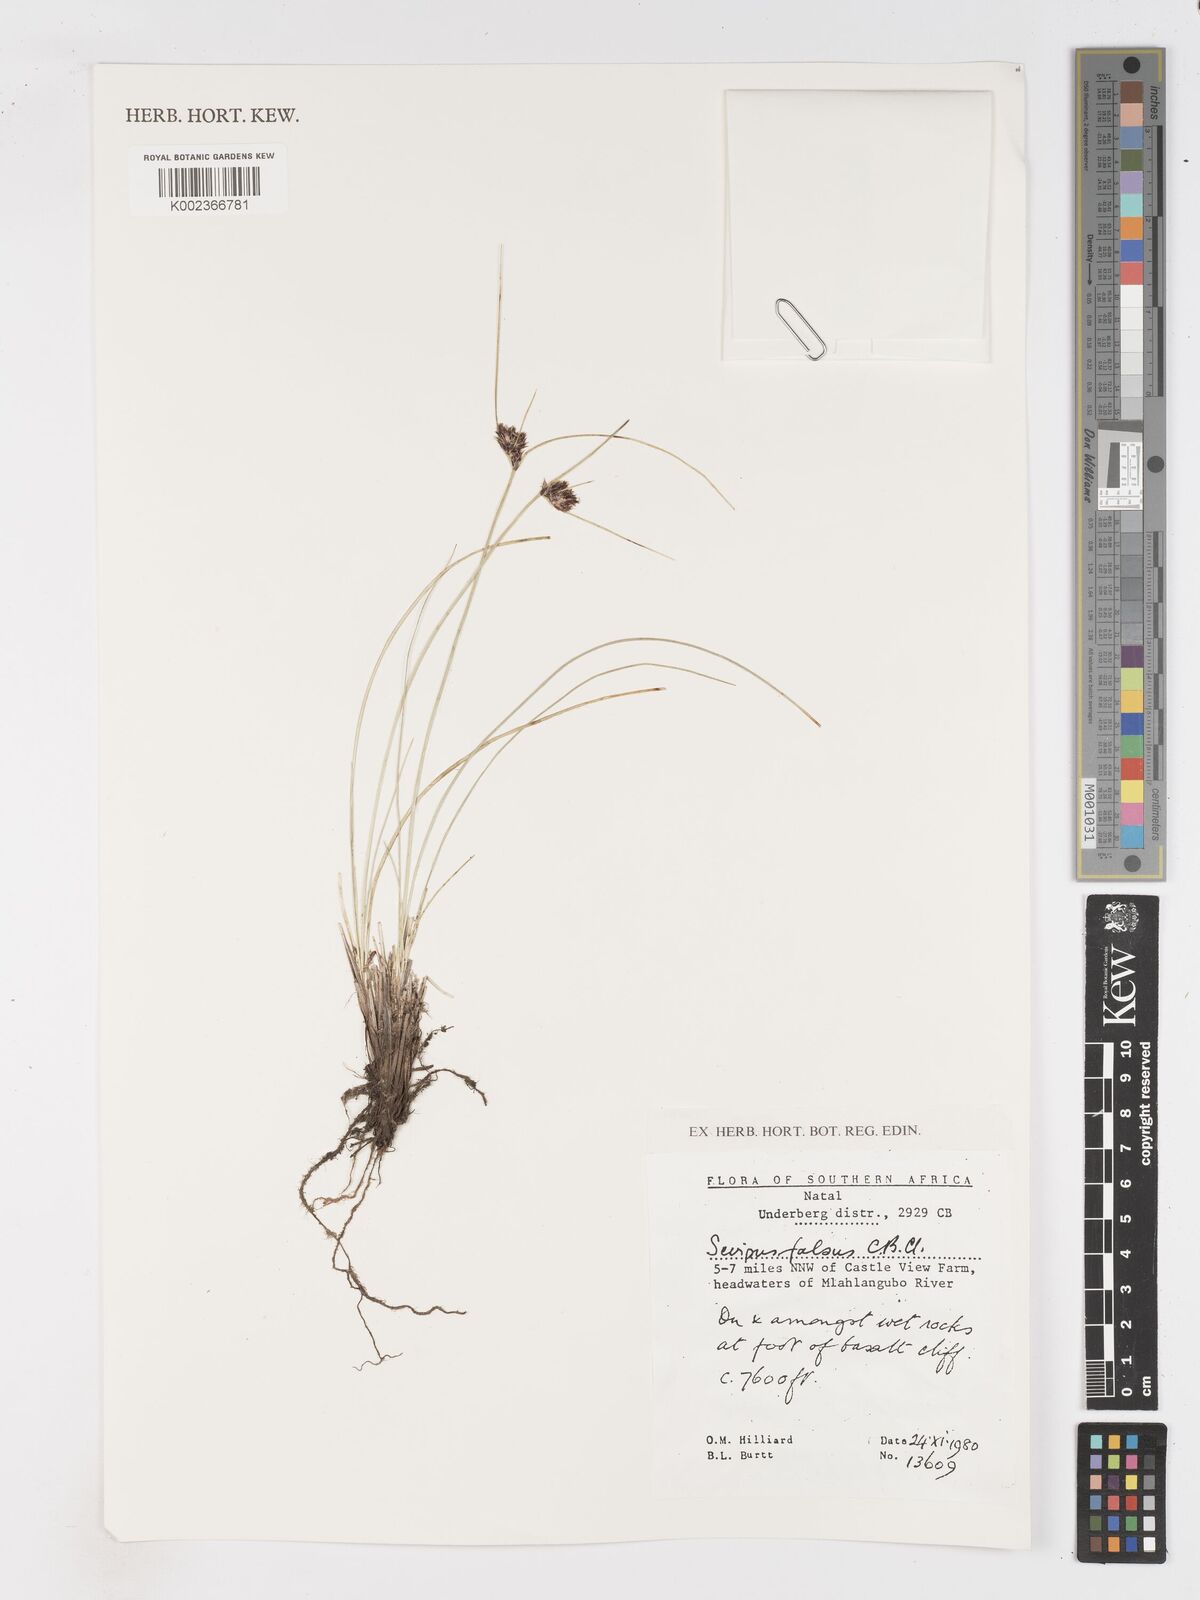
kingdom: Plantae
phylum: Tracheophyta
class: Liliopsida
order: Poales
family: Cyperaceae
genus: Dracoscirpoides
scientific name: Dracoscirpoides falsa
